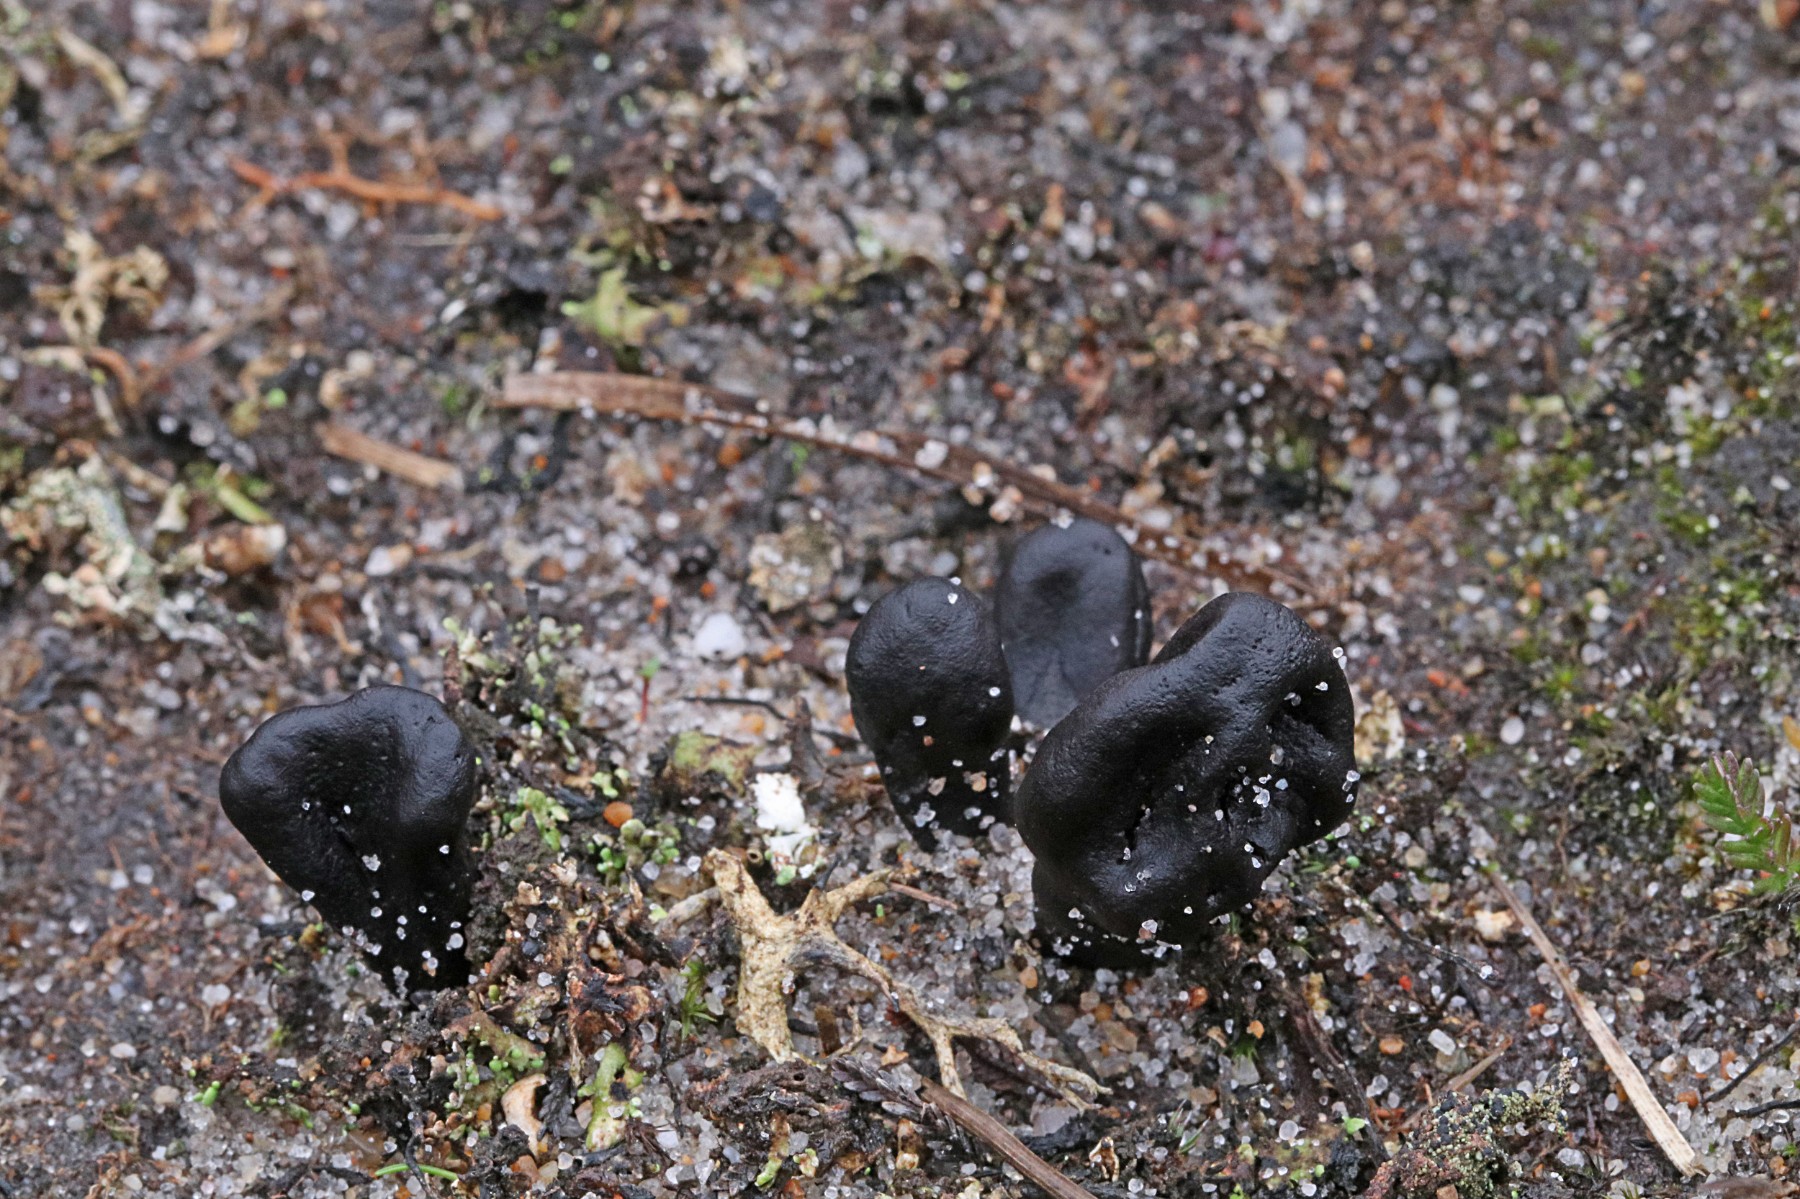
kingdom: Fungi
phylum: Ascomycota
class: Geoglossomycetes
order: Geoglossales
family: Geoglossaceae
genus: Sabuloglossum
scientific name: Sabuloglossum arenarium
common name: klit-jordtunge
